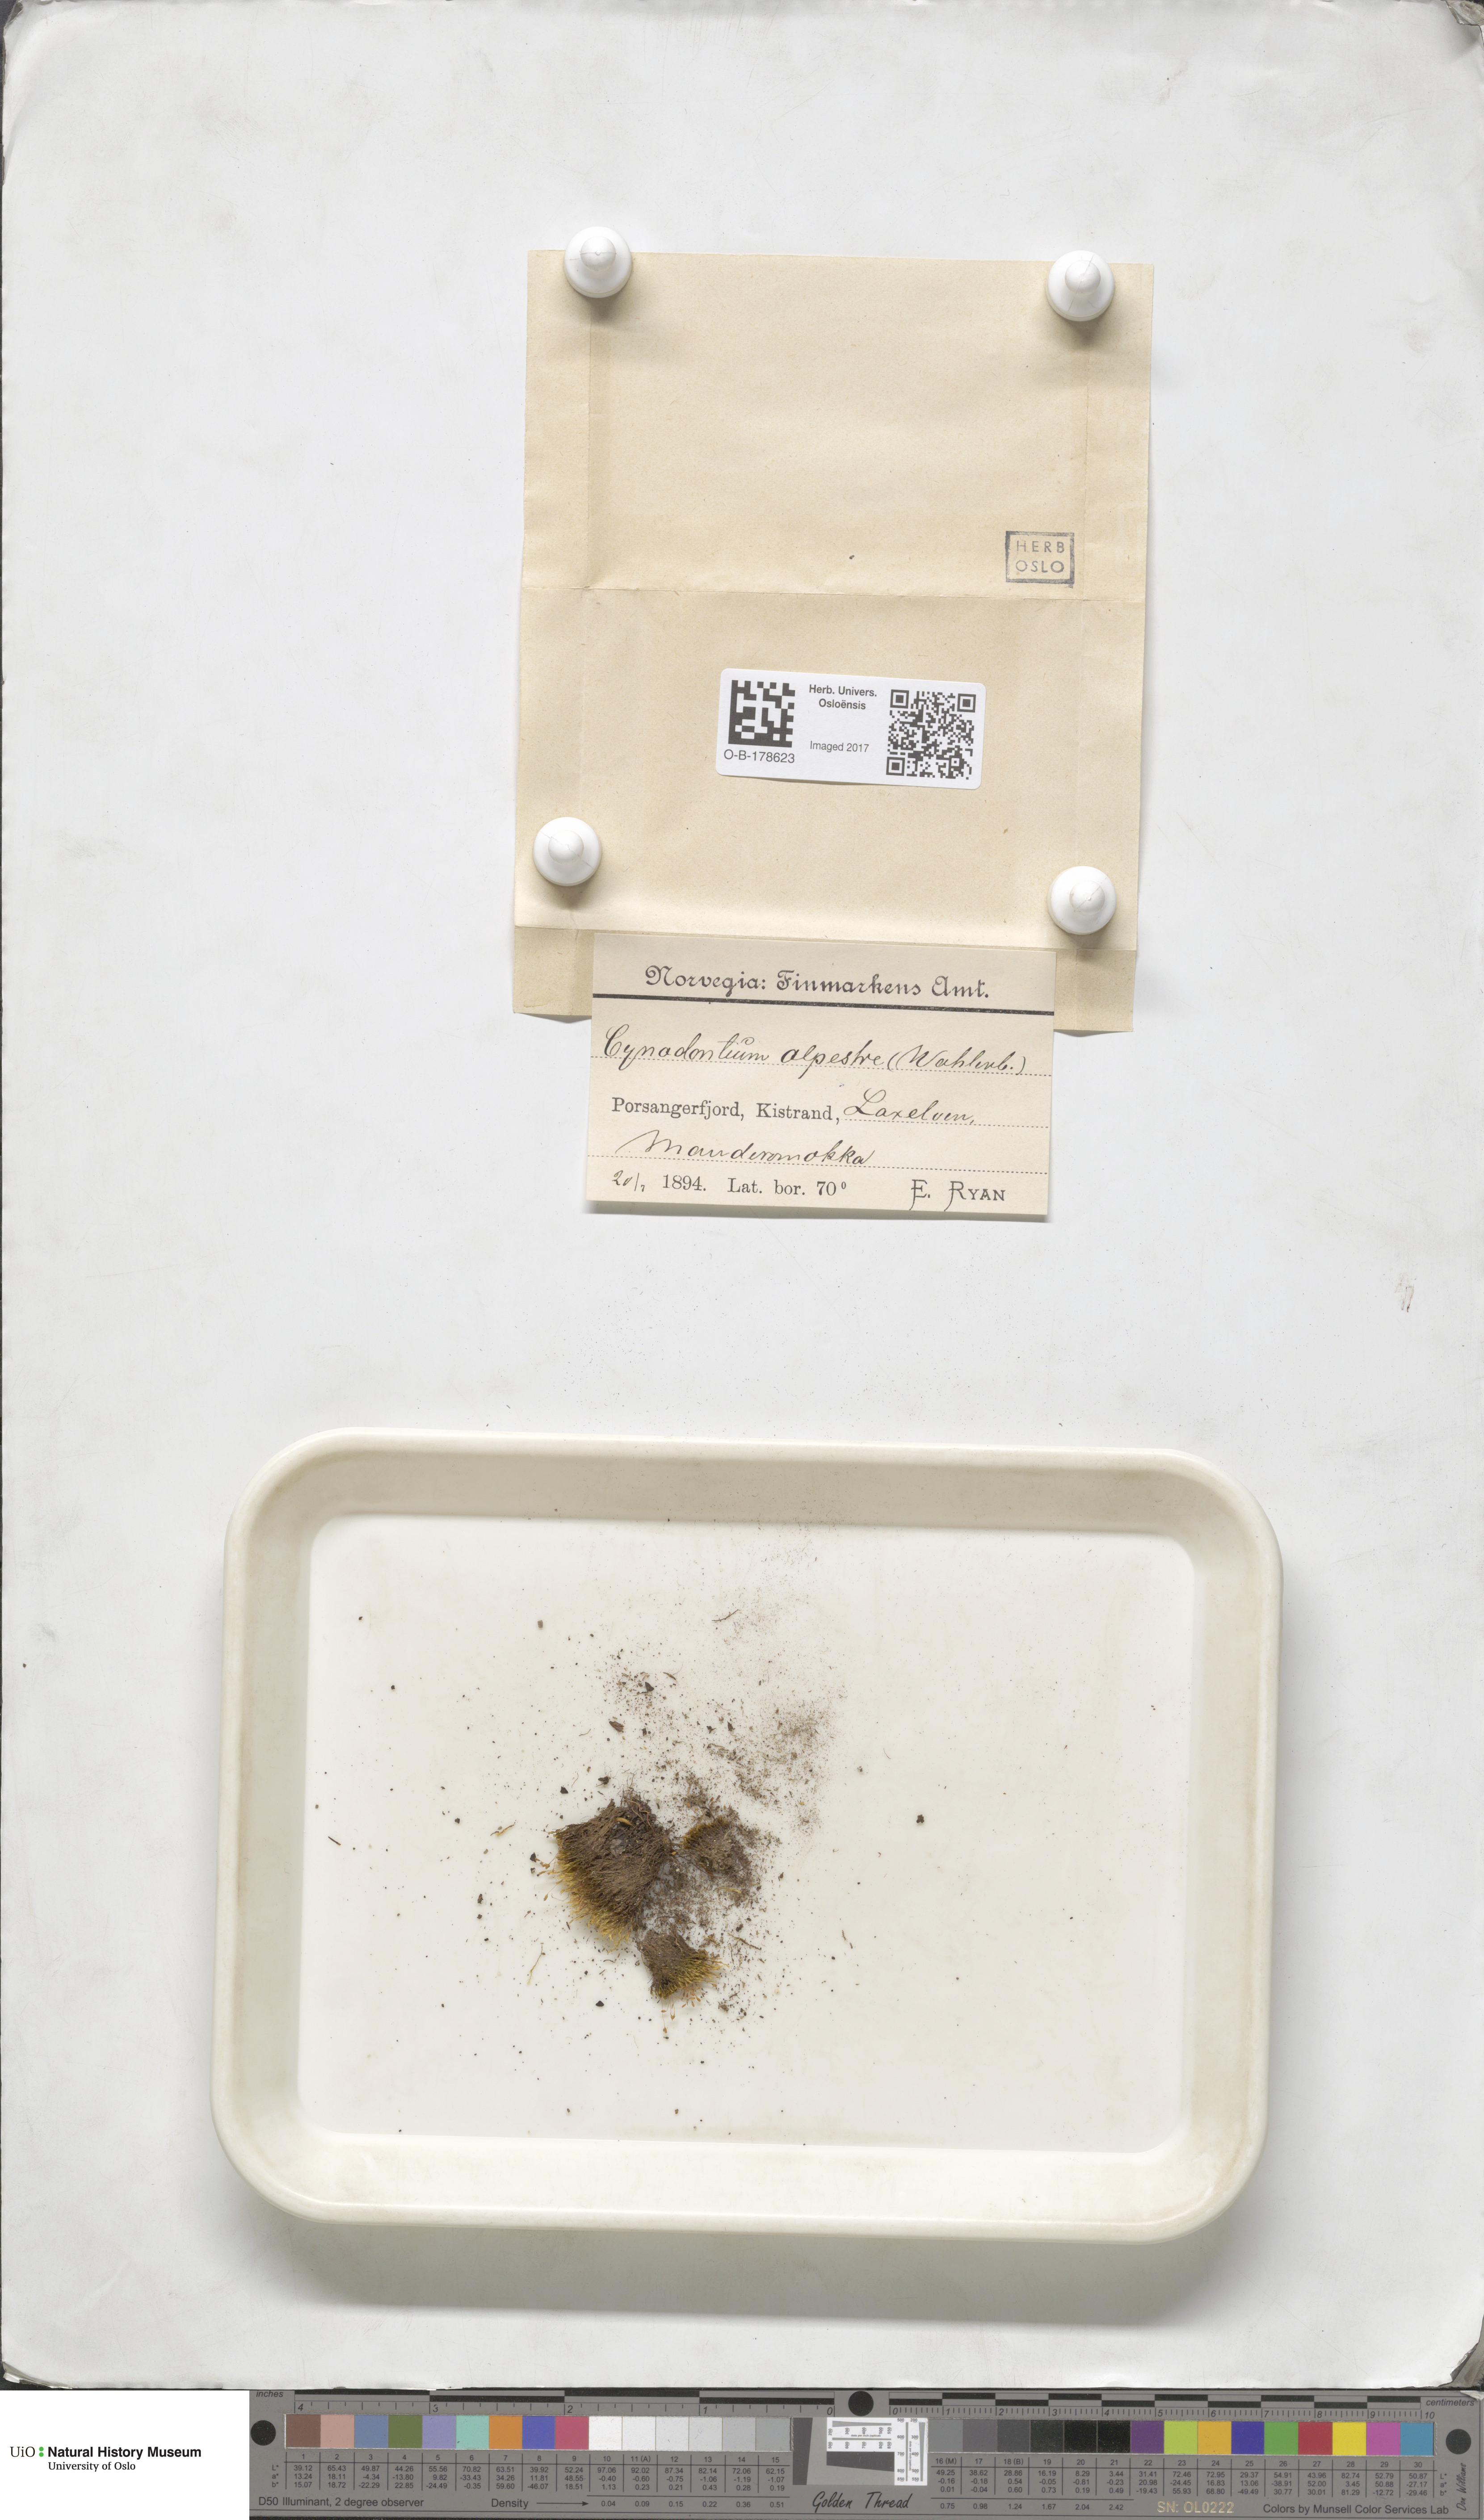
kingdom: Plantae
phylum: Bryophyta
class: Bryopsida
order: Dicranales
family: Rhabdoweisiaceae
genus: Cnestrum
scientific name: Cnestrum alpestre
